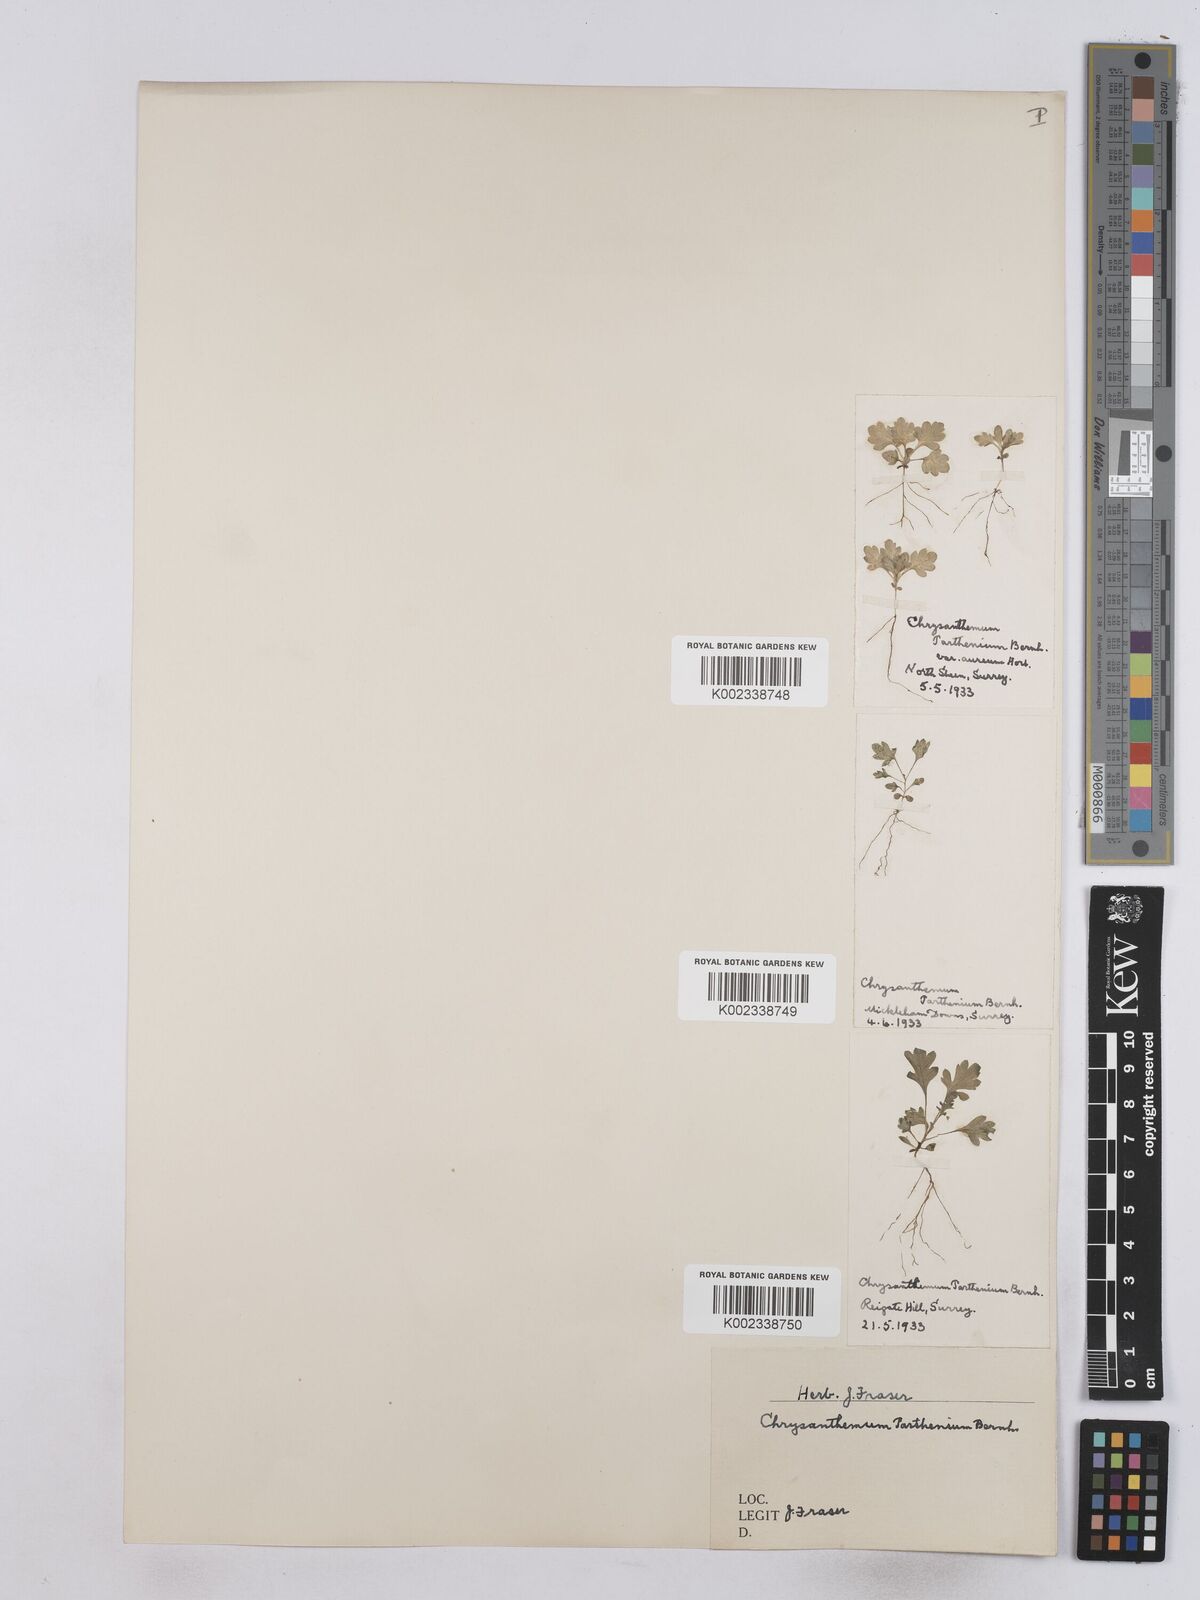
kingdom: Plantae
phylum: Tracheophyta
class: Magnoliopsida
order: Asterales
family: Asteraceae
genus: Tanacetum
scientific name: Tanacetum parthenium
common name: Feverfew
